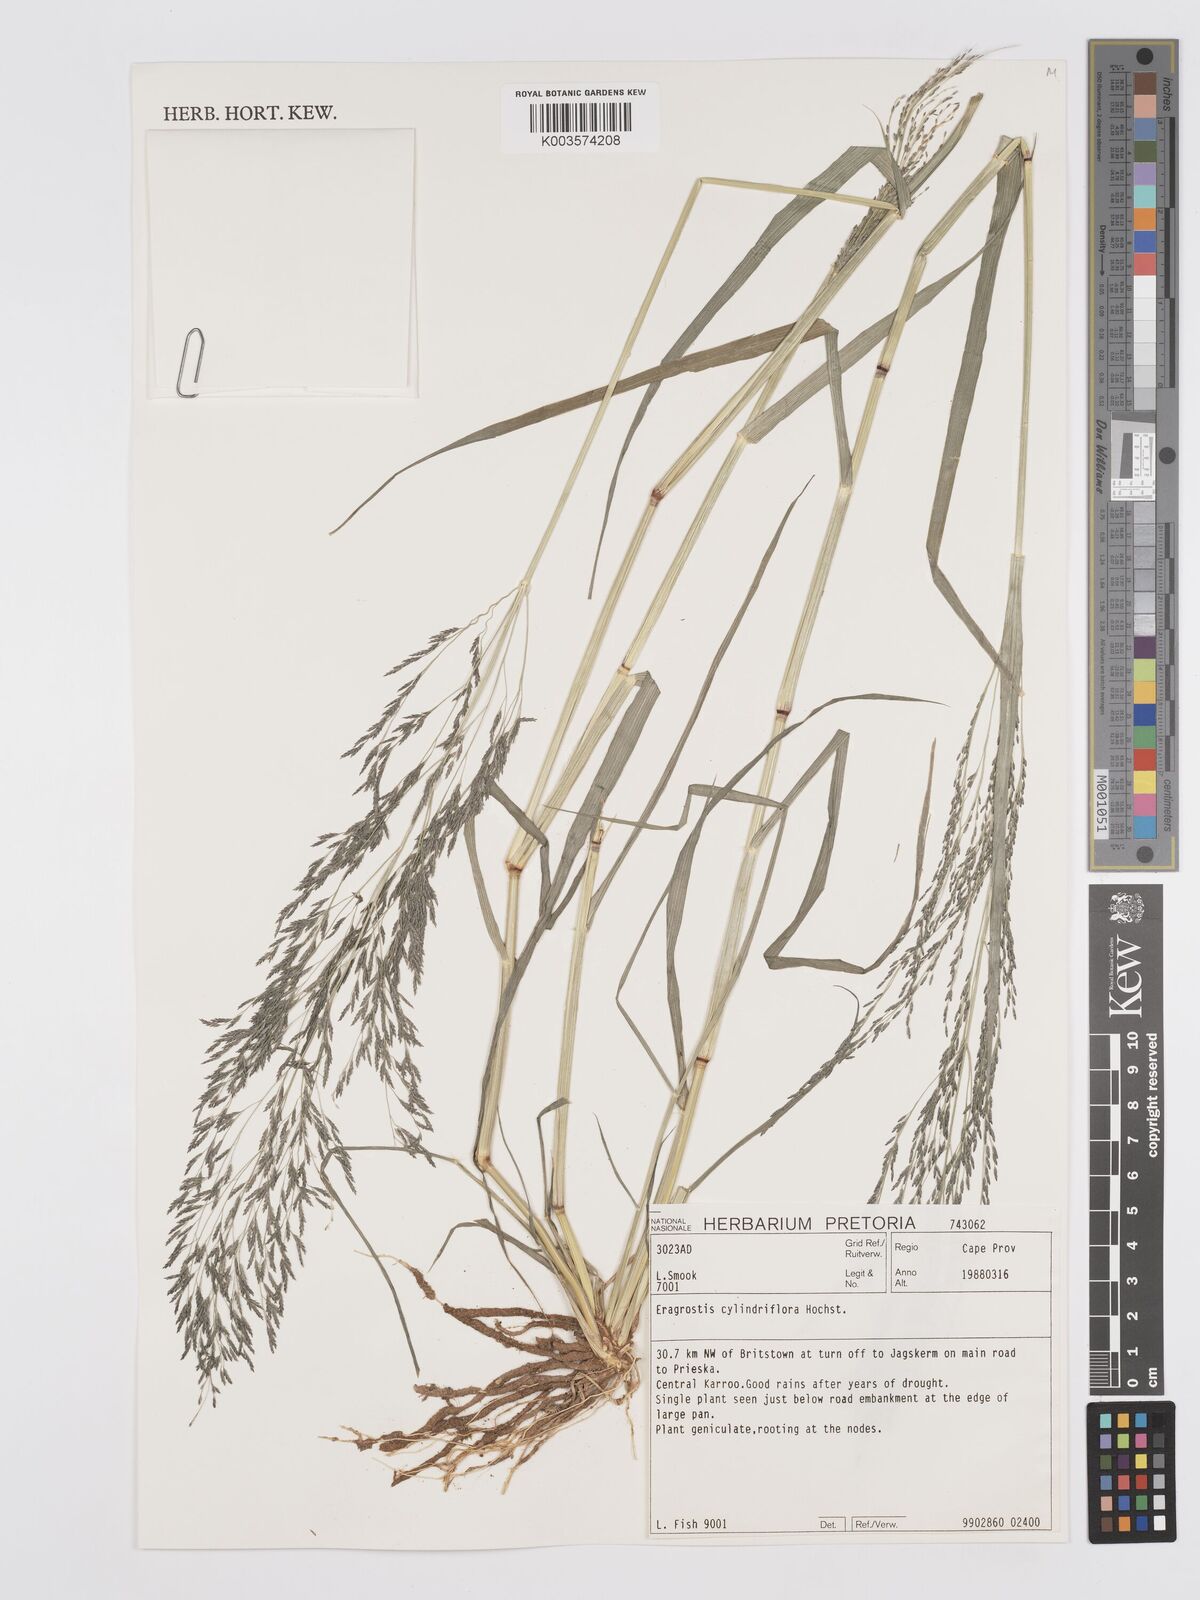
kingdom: Plantae
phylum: Tracheophyta
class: Liliopsida
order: Poales
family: Poaceae
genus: Eragrostis
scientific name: Eragrostis cylindriflora
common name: Cylinderflower lovegrass
